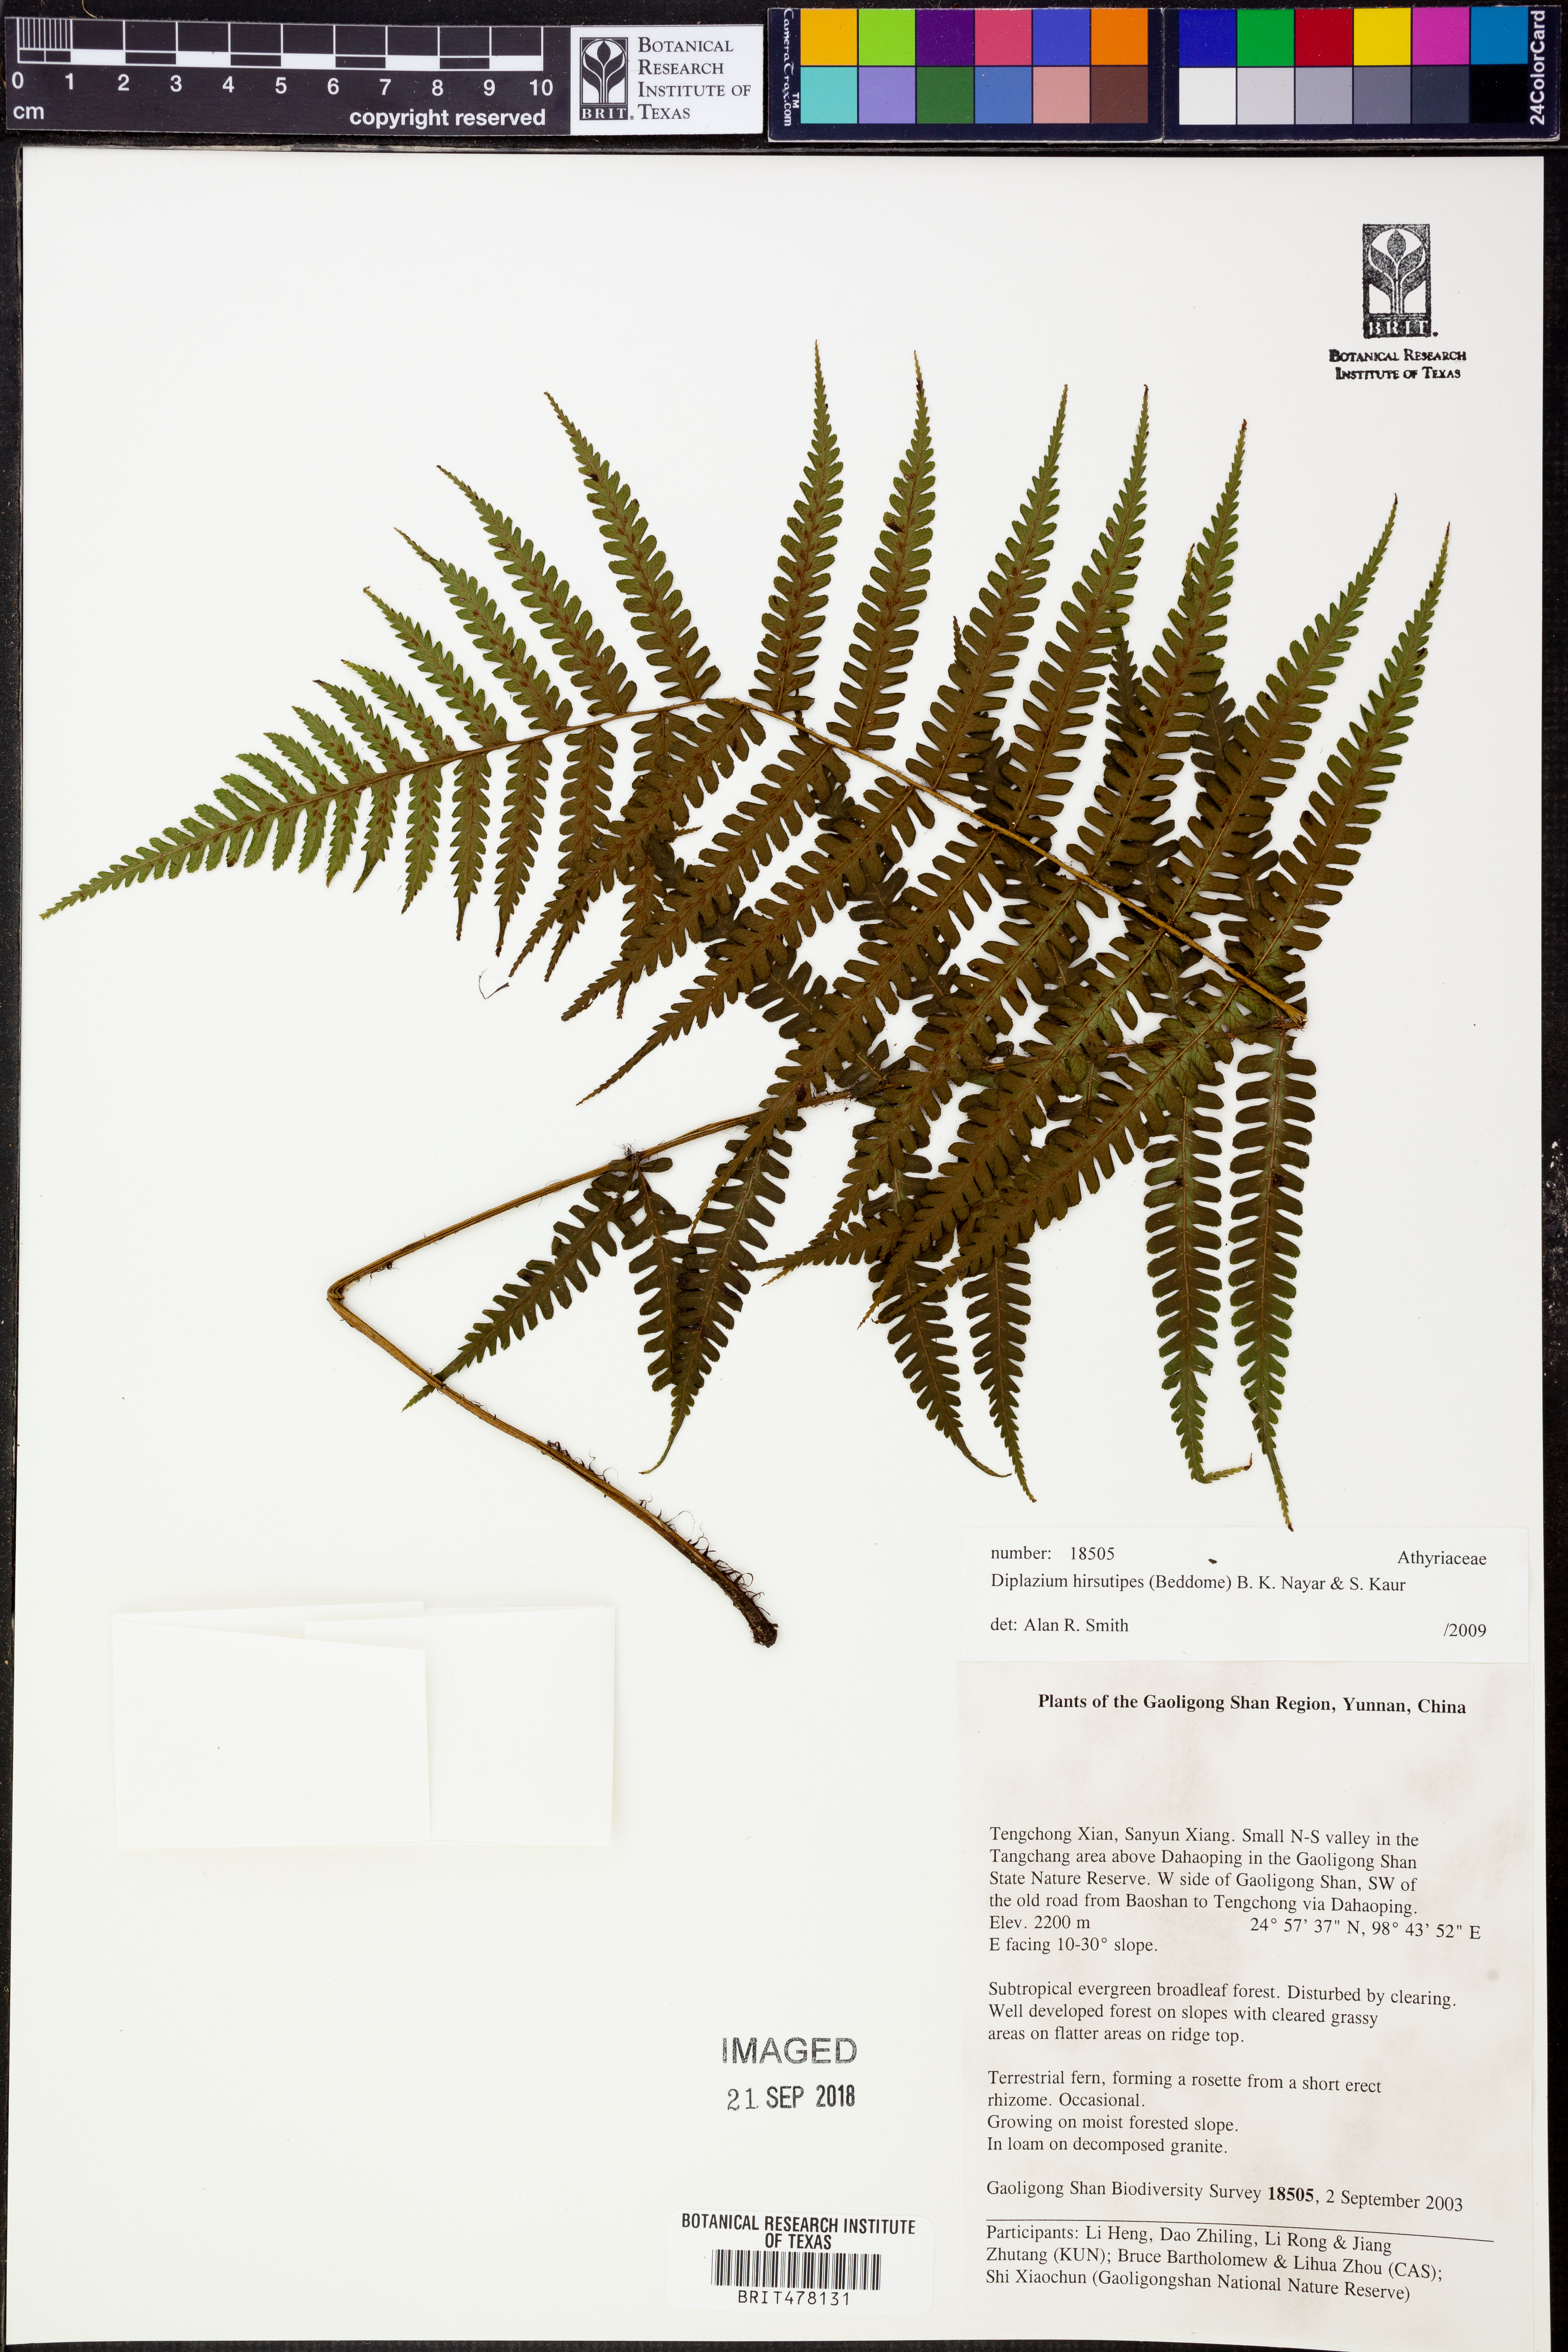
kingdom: Plantae
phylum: Tracheophyta
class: Polypodiopsida
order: Polypodiales
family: Athyriaceae
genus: Diplazium
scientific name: Diplazium stoliczkae
